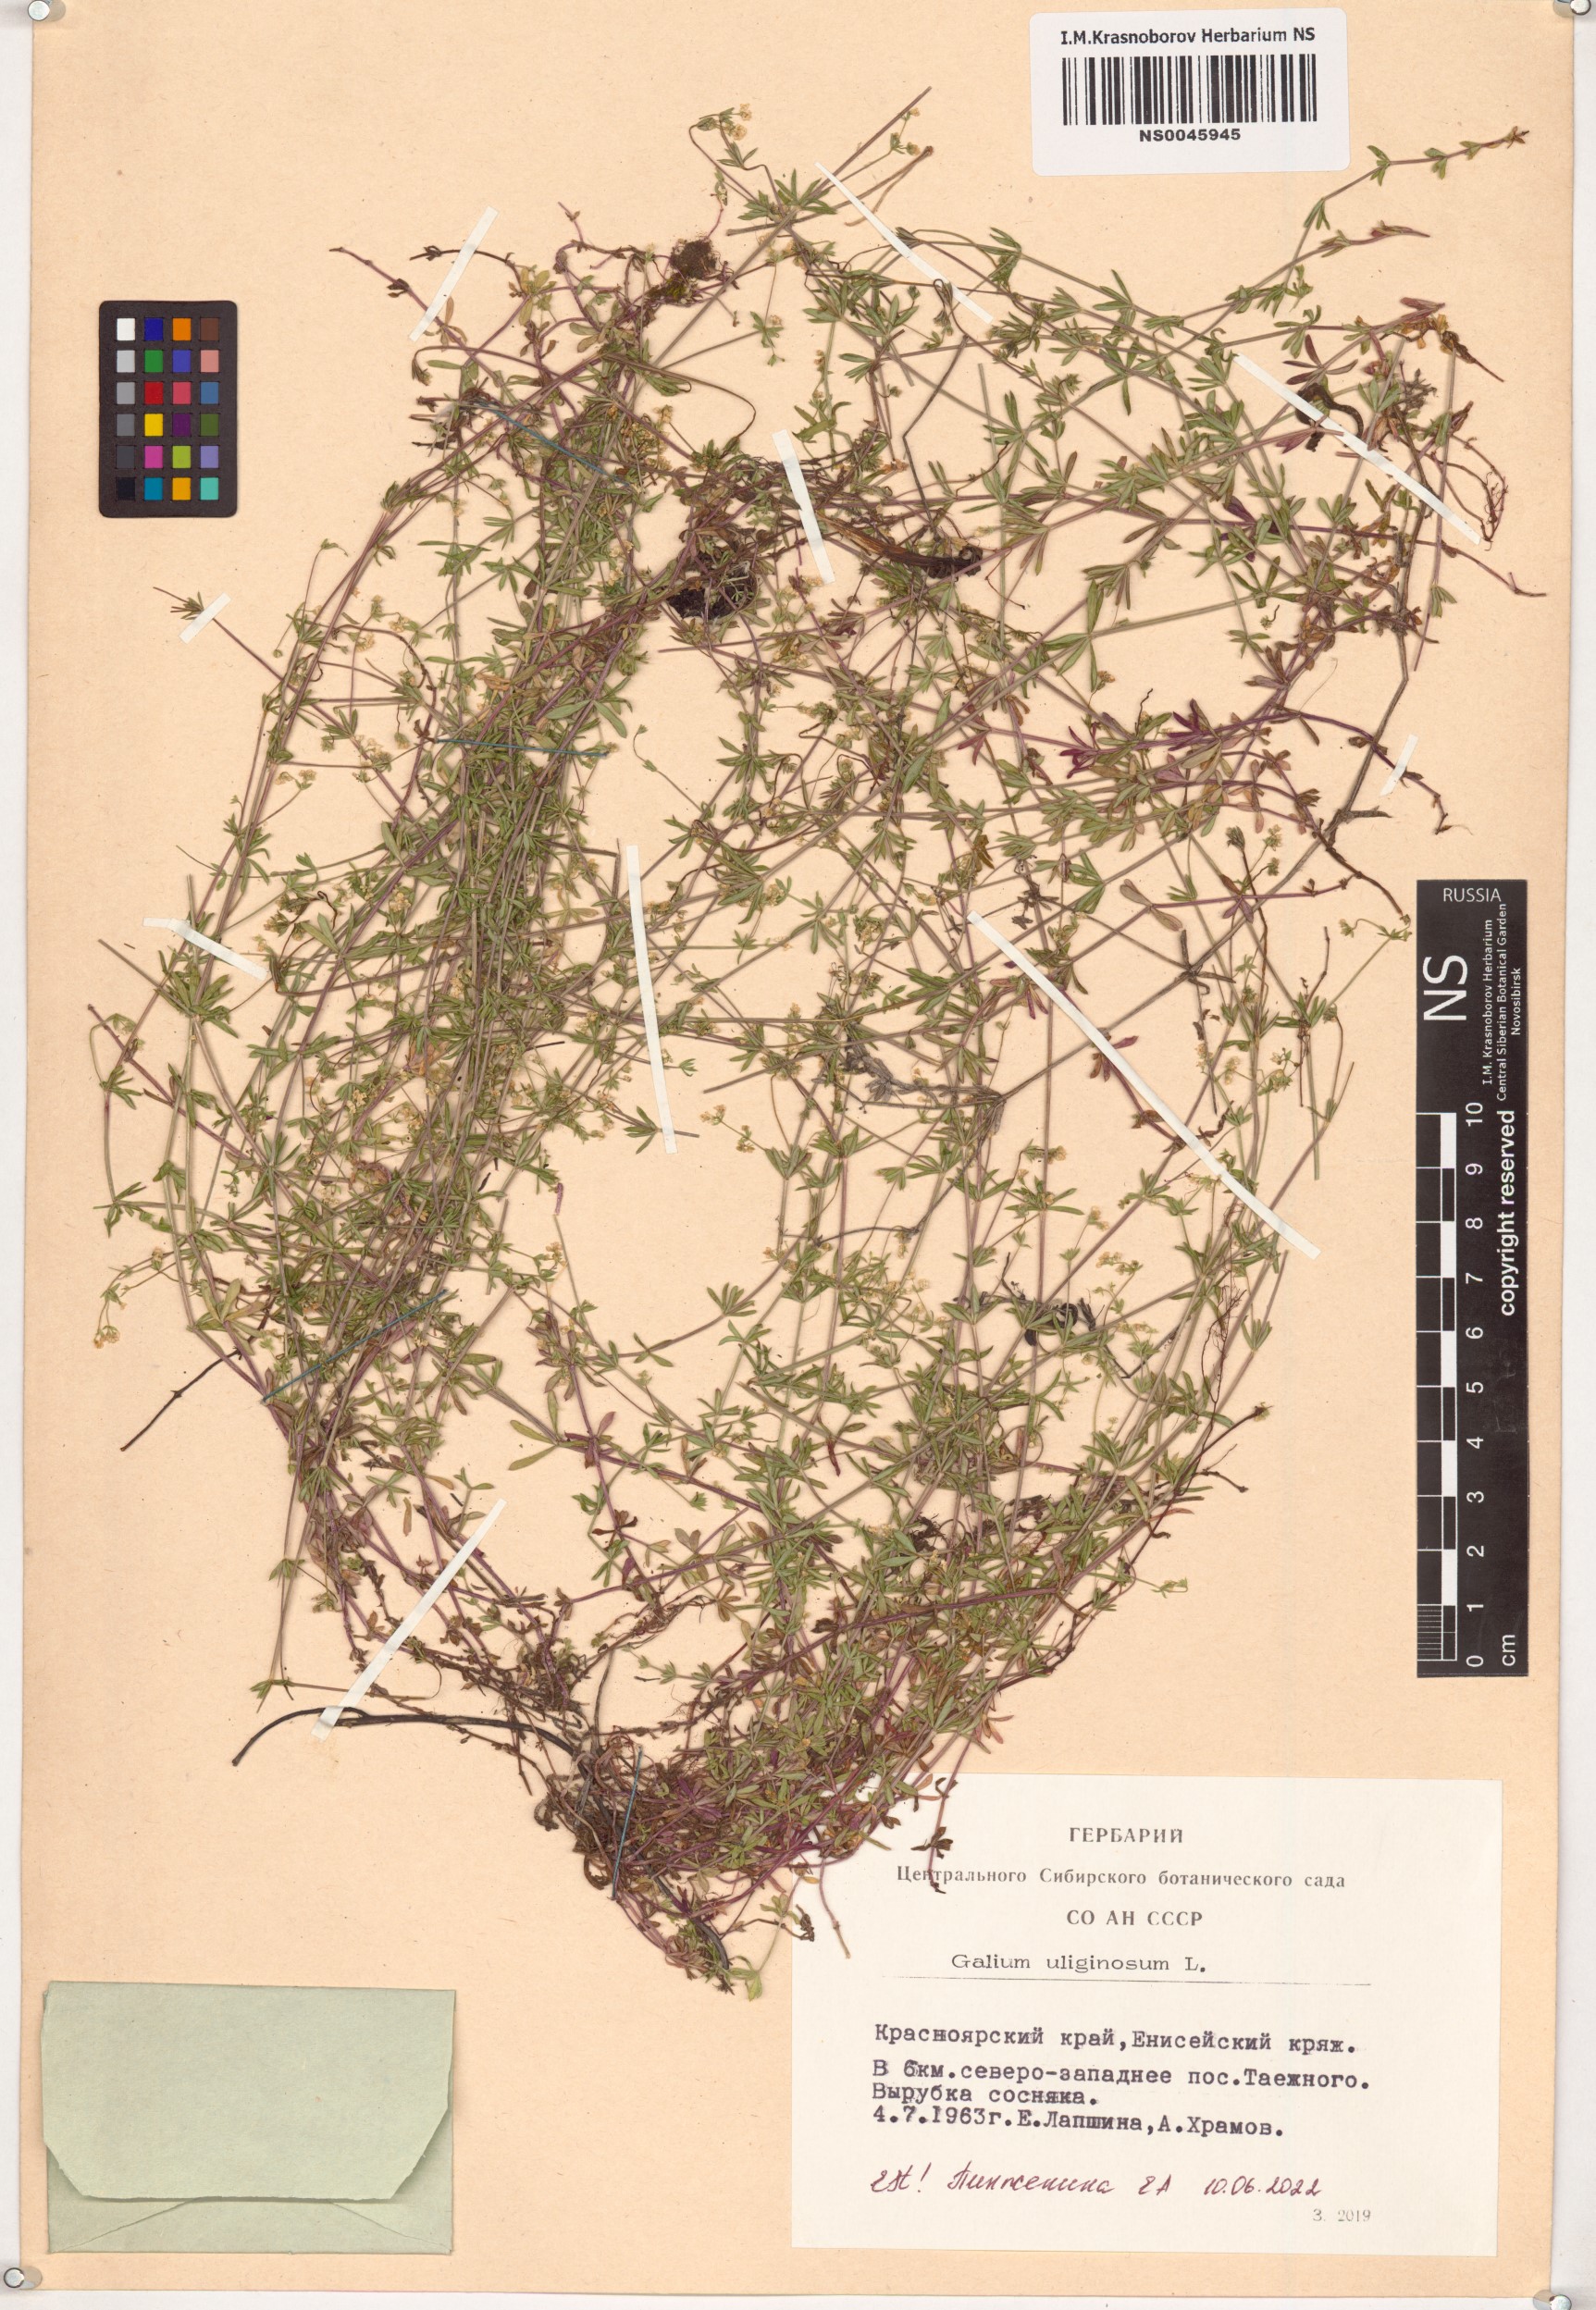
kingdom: Plantae
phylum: Tracheophyta
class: Magnoliopsida
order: Gentianales
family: Rubiaceae
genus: Galium
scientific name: Galium uliginosum
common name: Fen bedstraw
